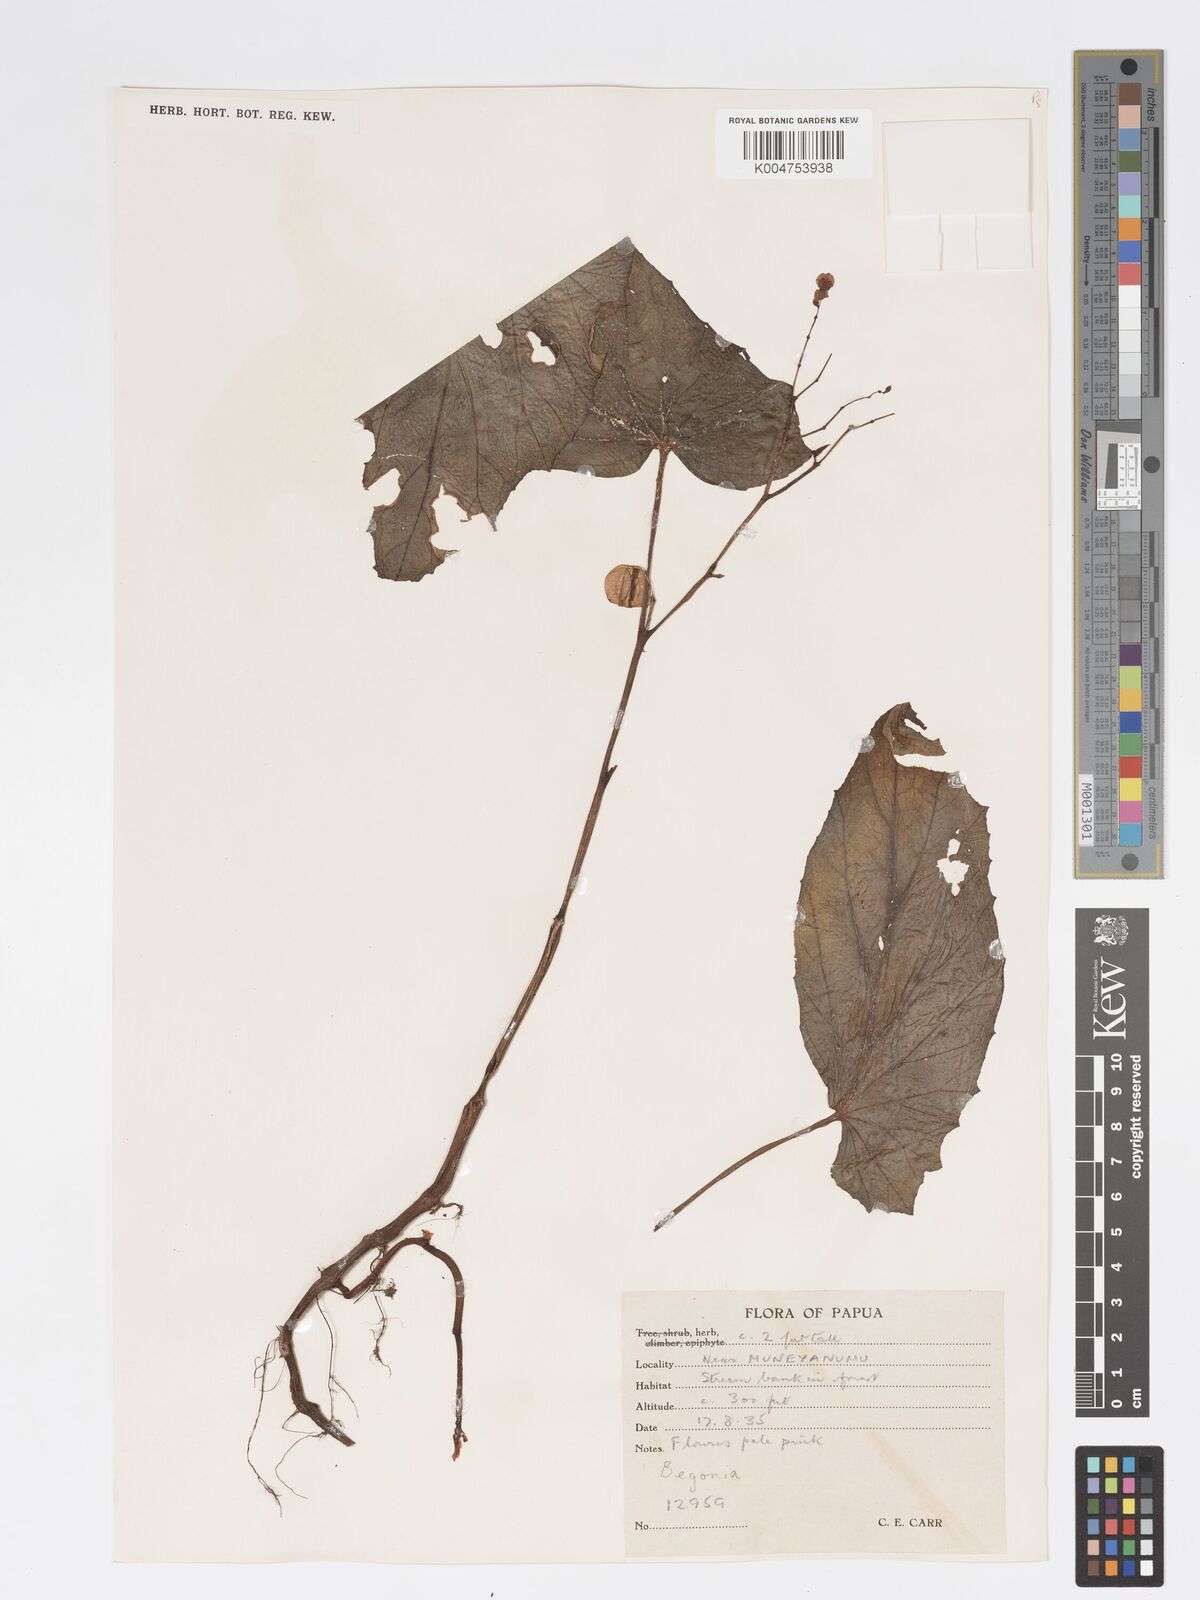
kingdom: Plantae
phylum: Tracheophyta
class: Magnoliopsida
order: Cucurbitales
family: Begoniaceae
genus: Begonia
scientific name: Begonia papuana
